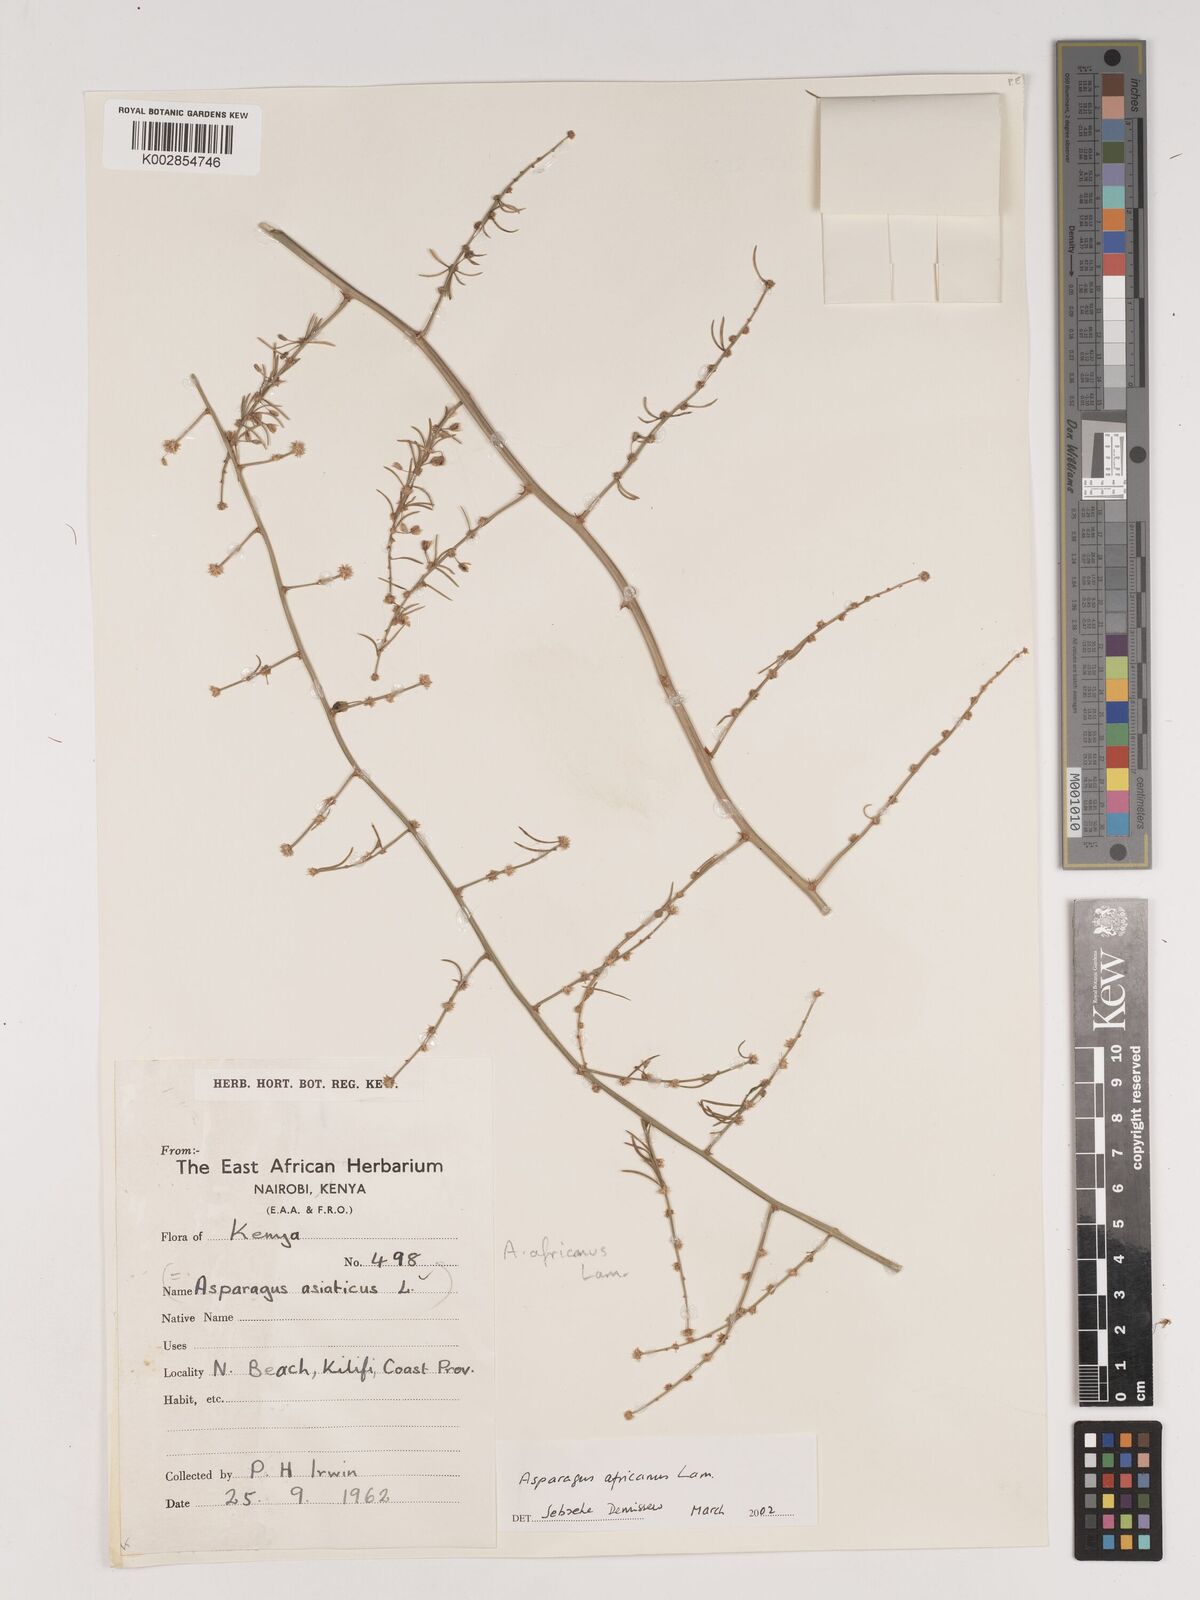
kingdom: Plantae
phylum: Tracheophyta
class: Liliopsida
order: Asparagales
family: Asparagaceae
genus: Asparagus
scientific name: Asparagus africanus
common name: Asparagus-fern
